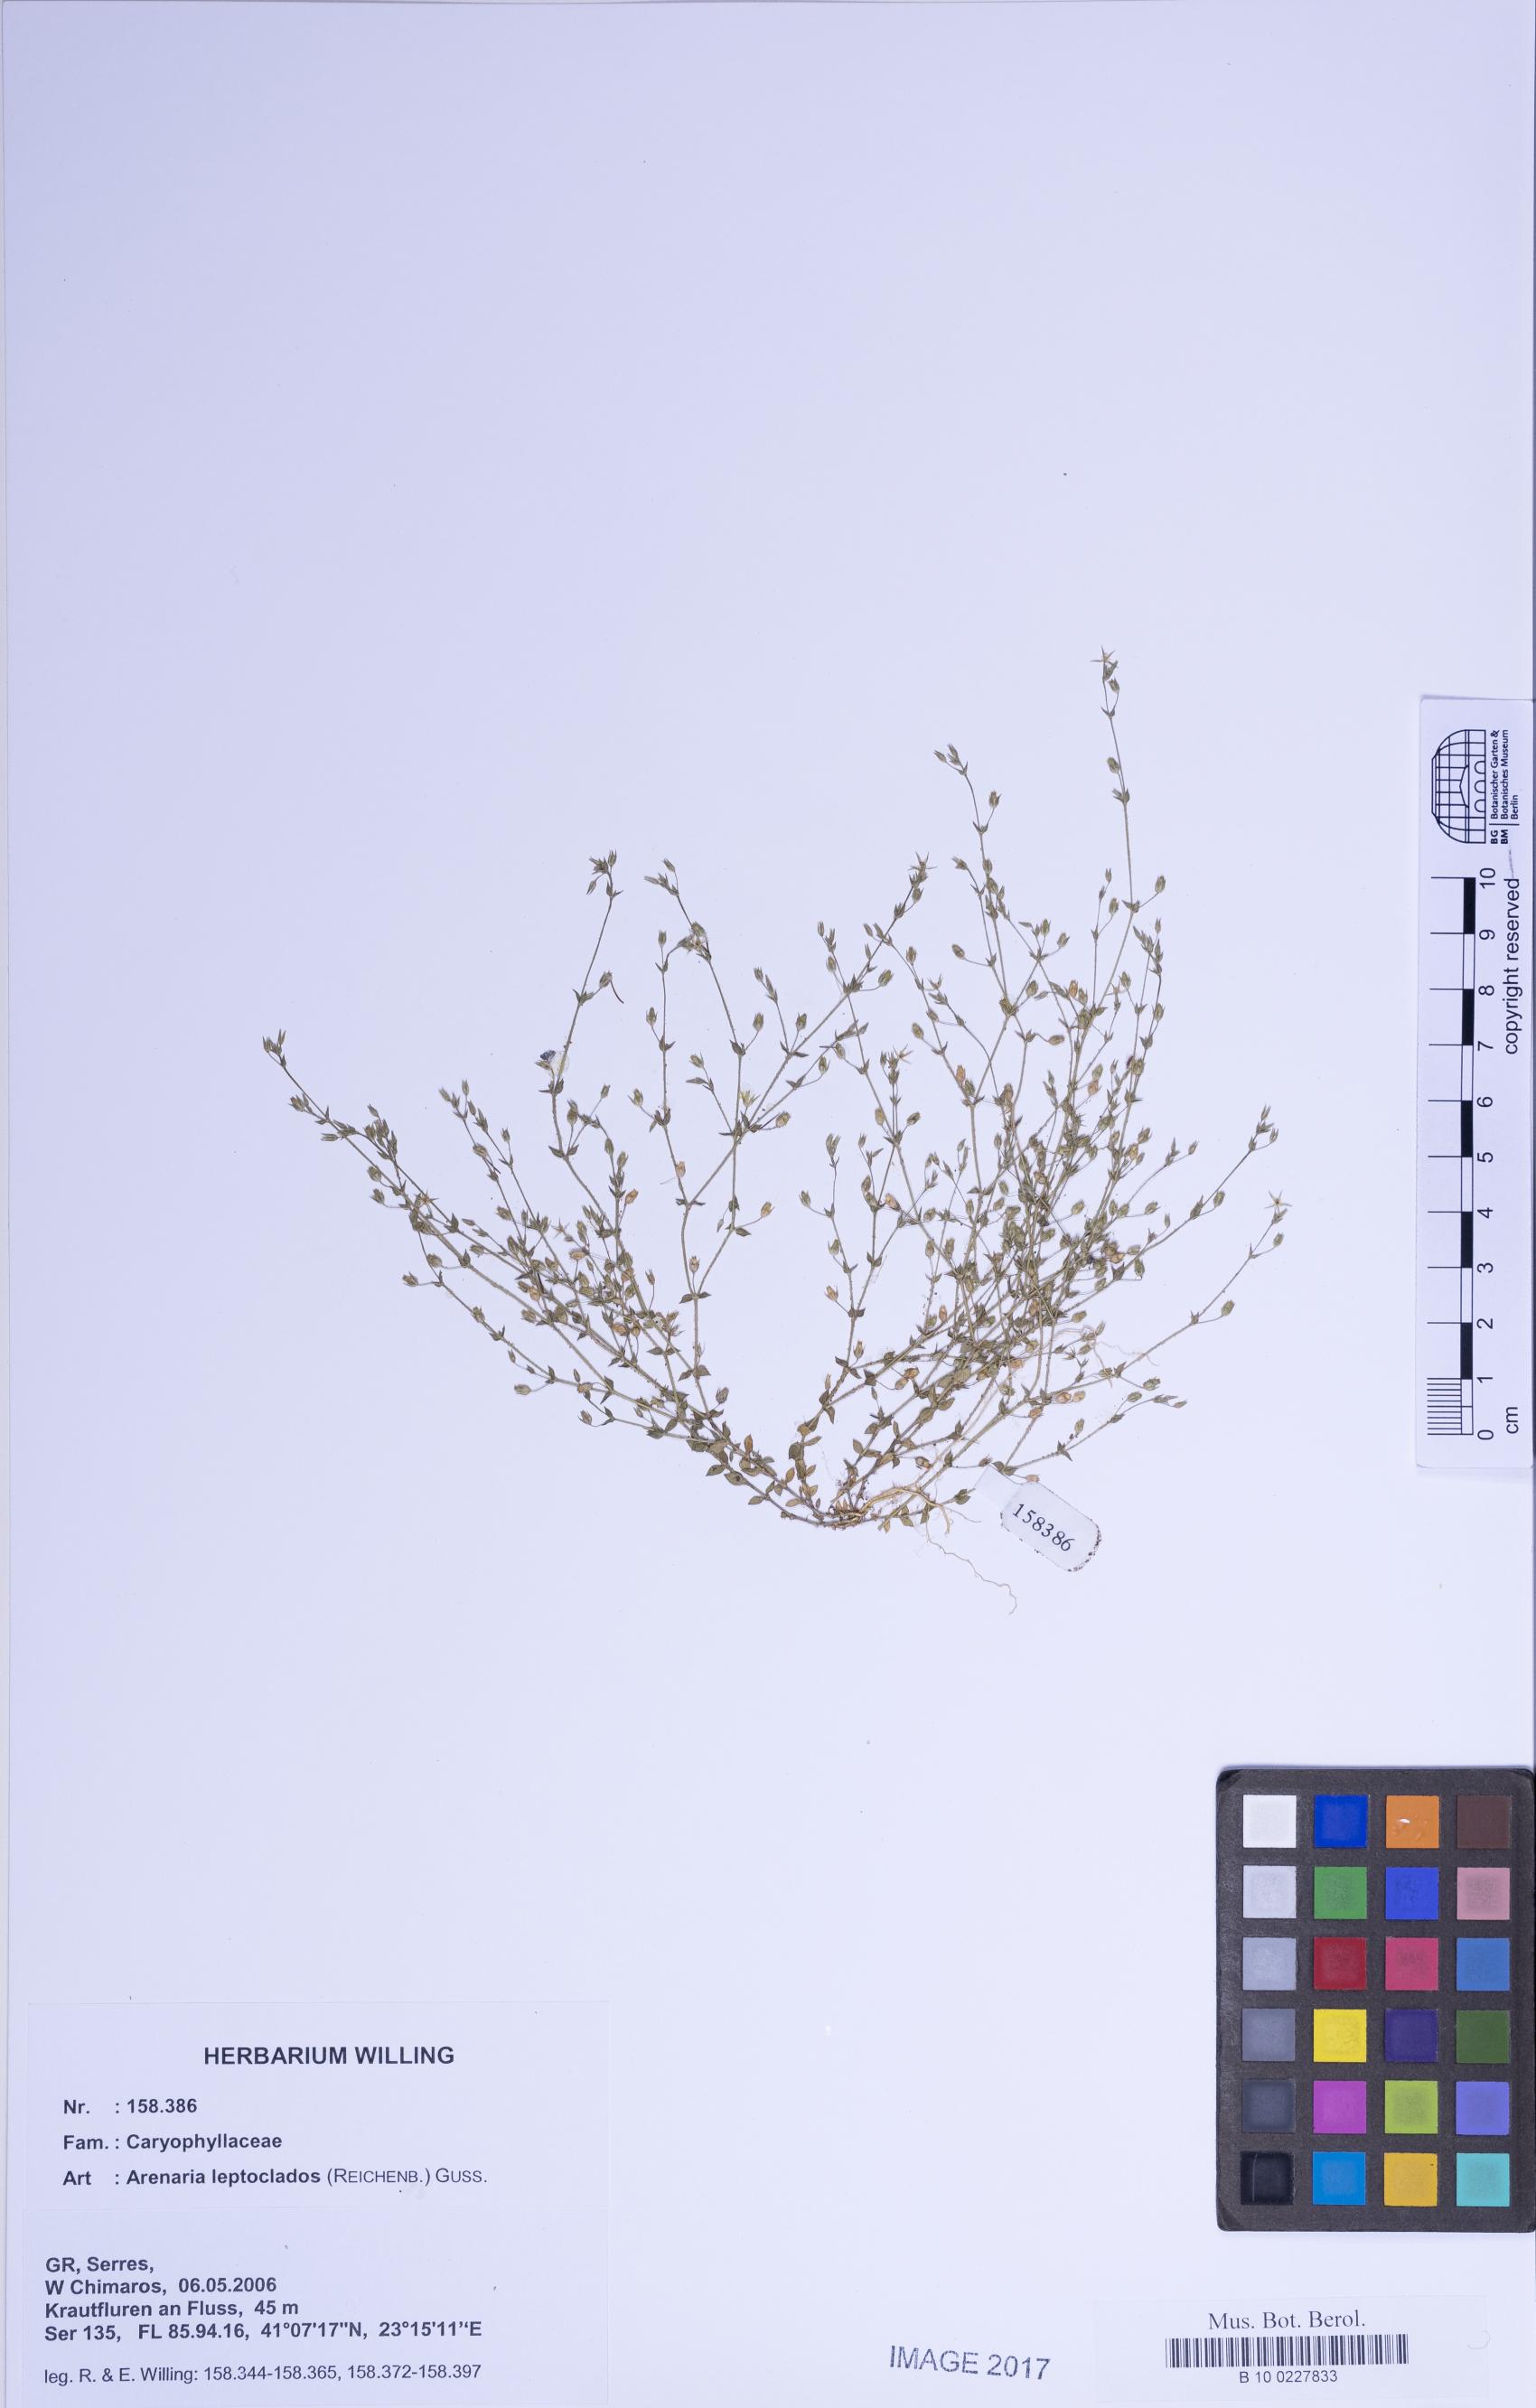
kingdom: Plantae
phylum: Tracheophyta
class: Magnoliopsida
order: Caryophyllales
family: Caryophyllaceae
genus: Arenaria
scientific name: Arenaria leptoclados
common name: Thyme-leaved sandwort
